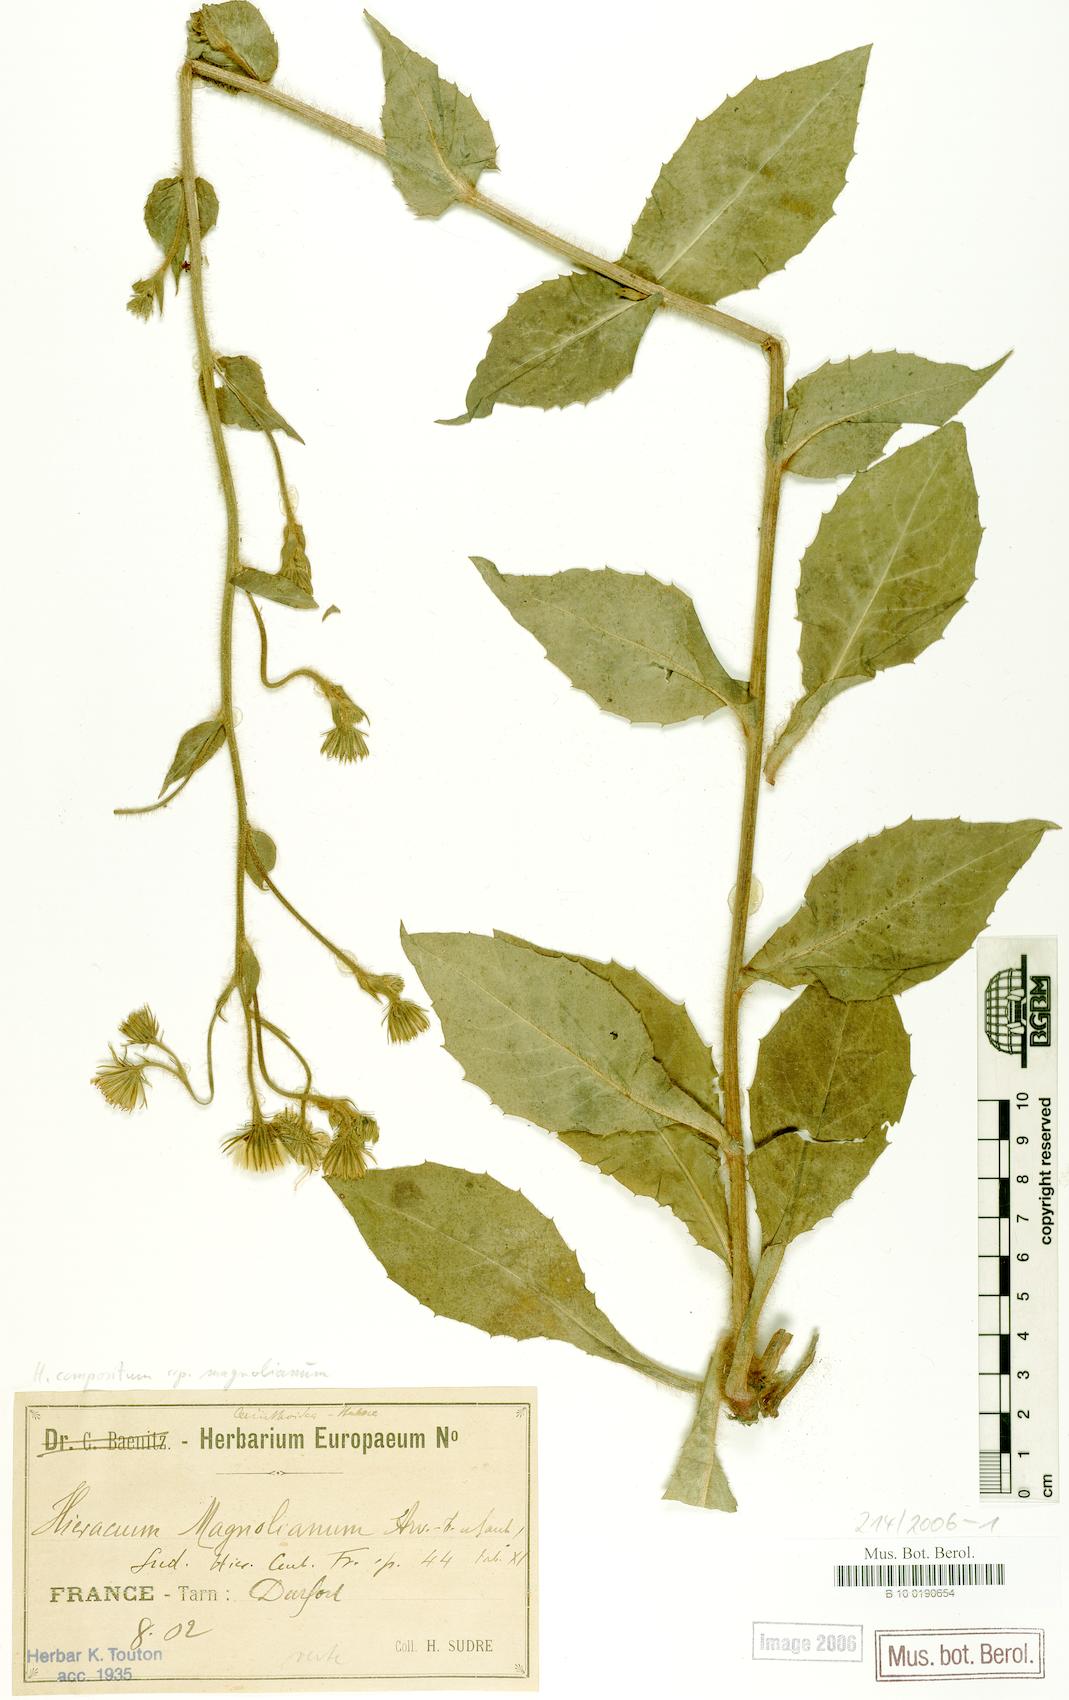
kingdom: Plantae
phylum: Tracheophyta
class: Magnoliopsida
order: Asterales
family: Asteraceae
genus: Hieracium
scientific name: Hieracium compositum
